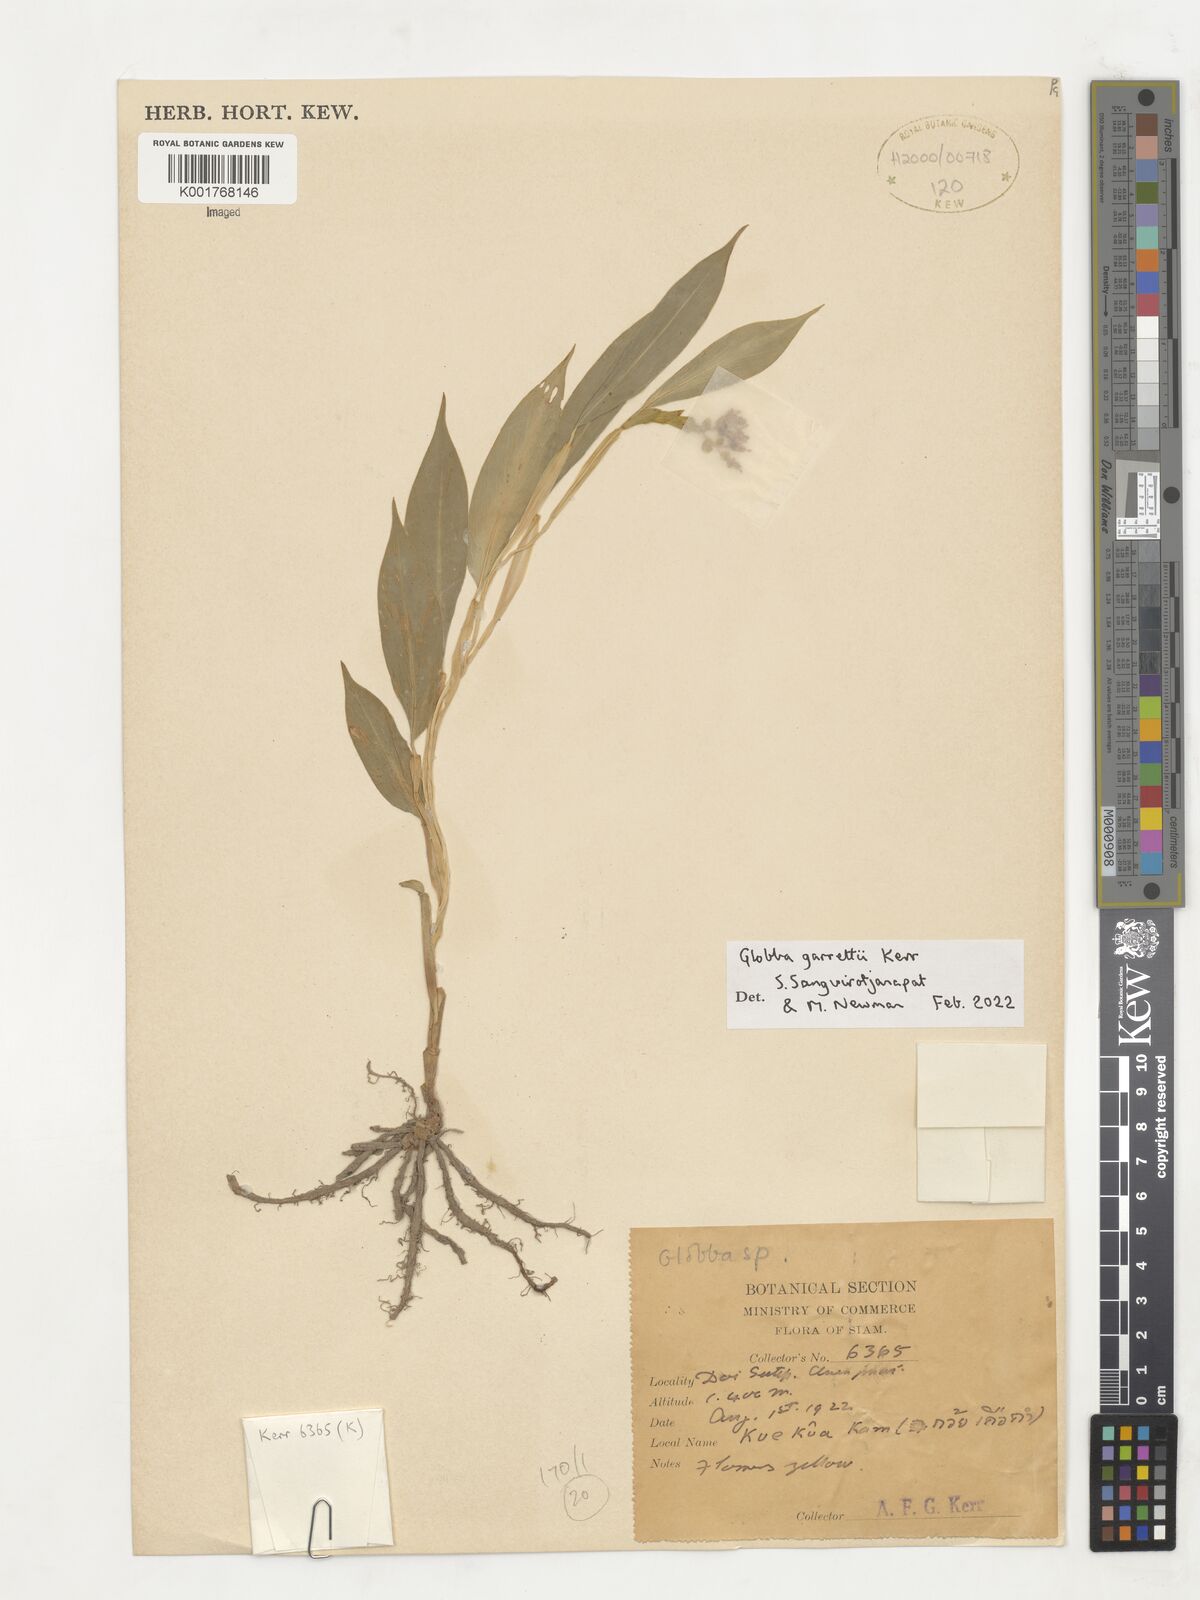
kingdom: Plantae
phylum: Tracheophyta
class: Liliopsida
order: Zingiberales
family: Zingiberaceae
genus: Globba
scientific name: Globba garrettii
